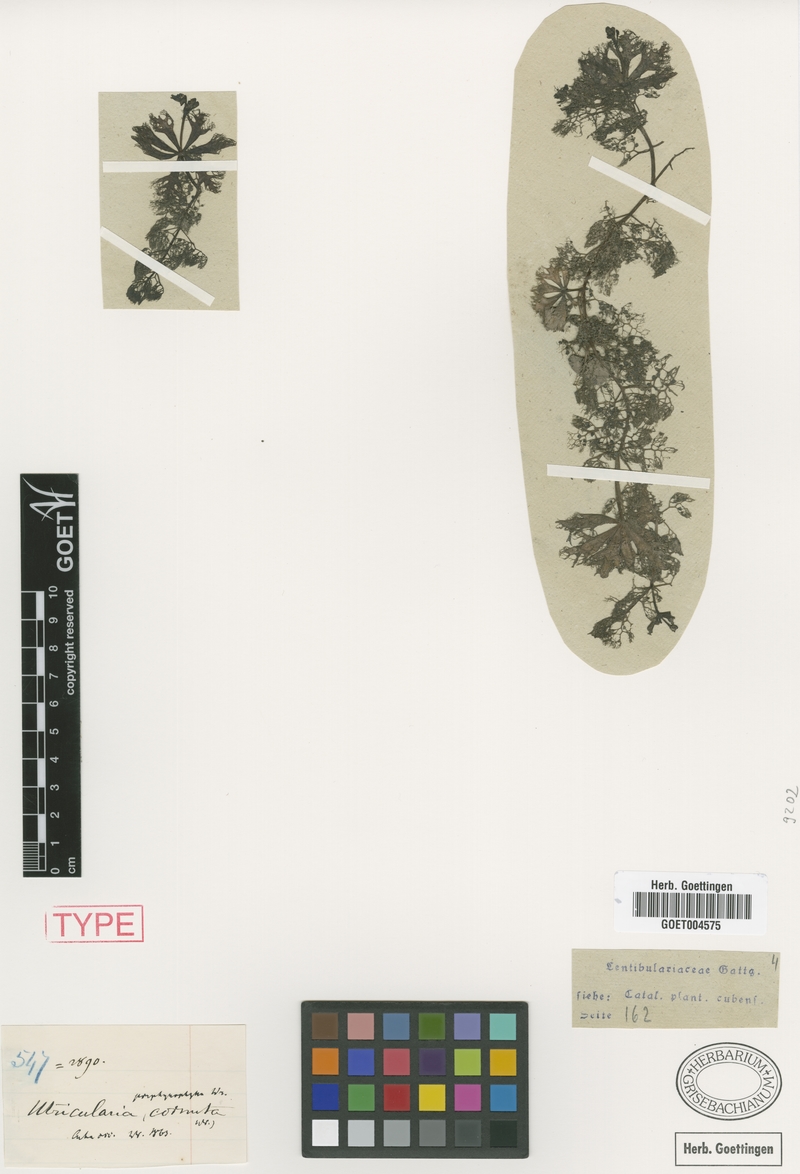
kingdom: Plantae
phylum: Tracheophyta
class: Magnoliopsida
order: Lamiales
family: Lentibulariaceae
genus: Utricularia
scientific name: Utricularia incisa
